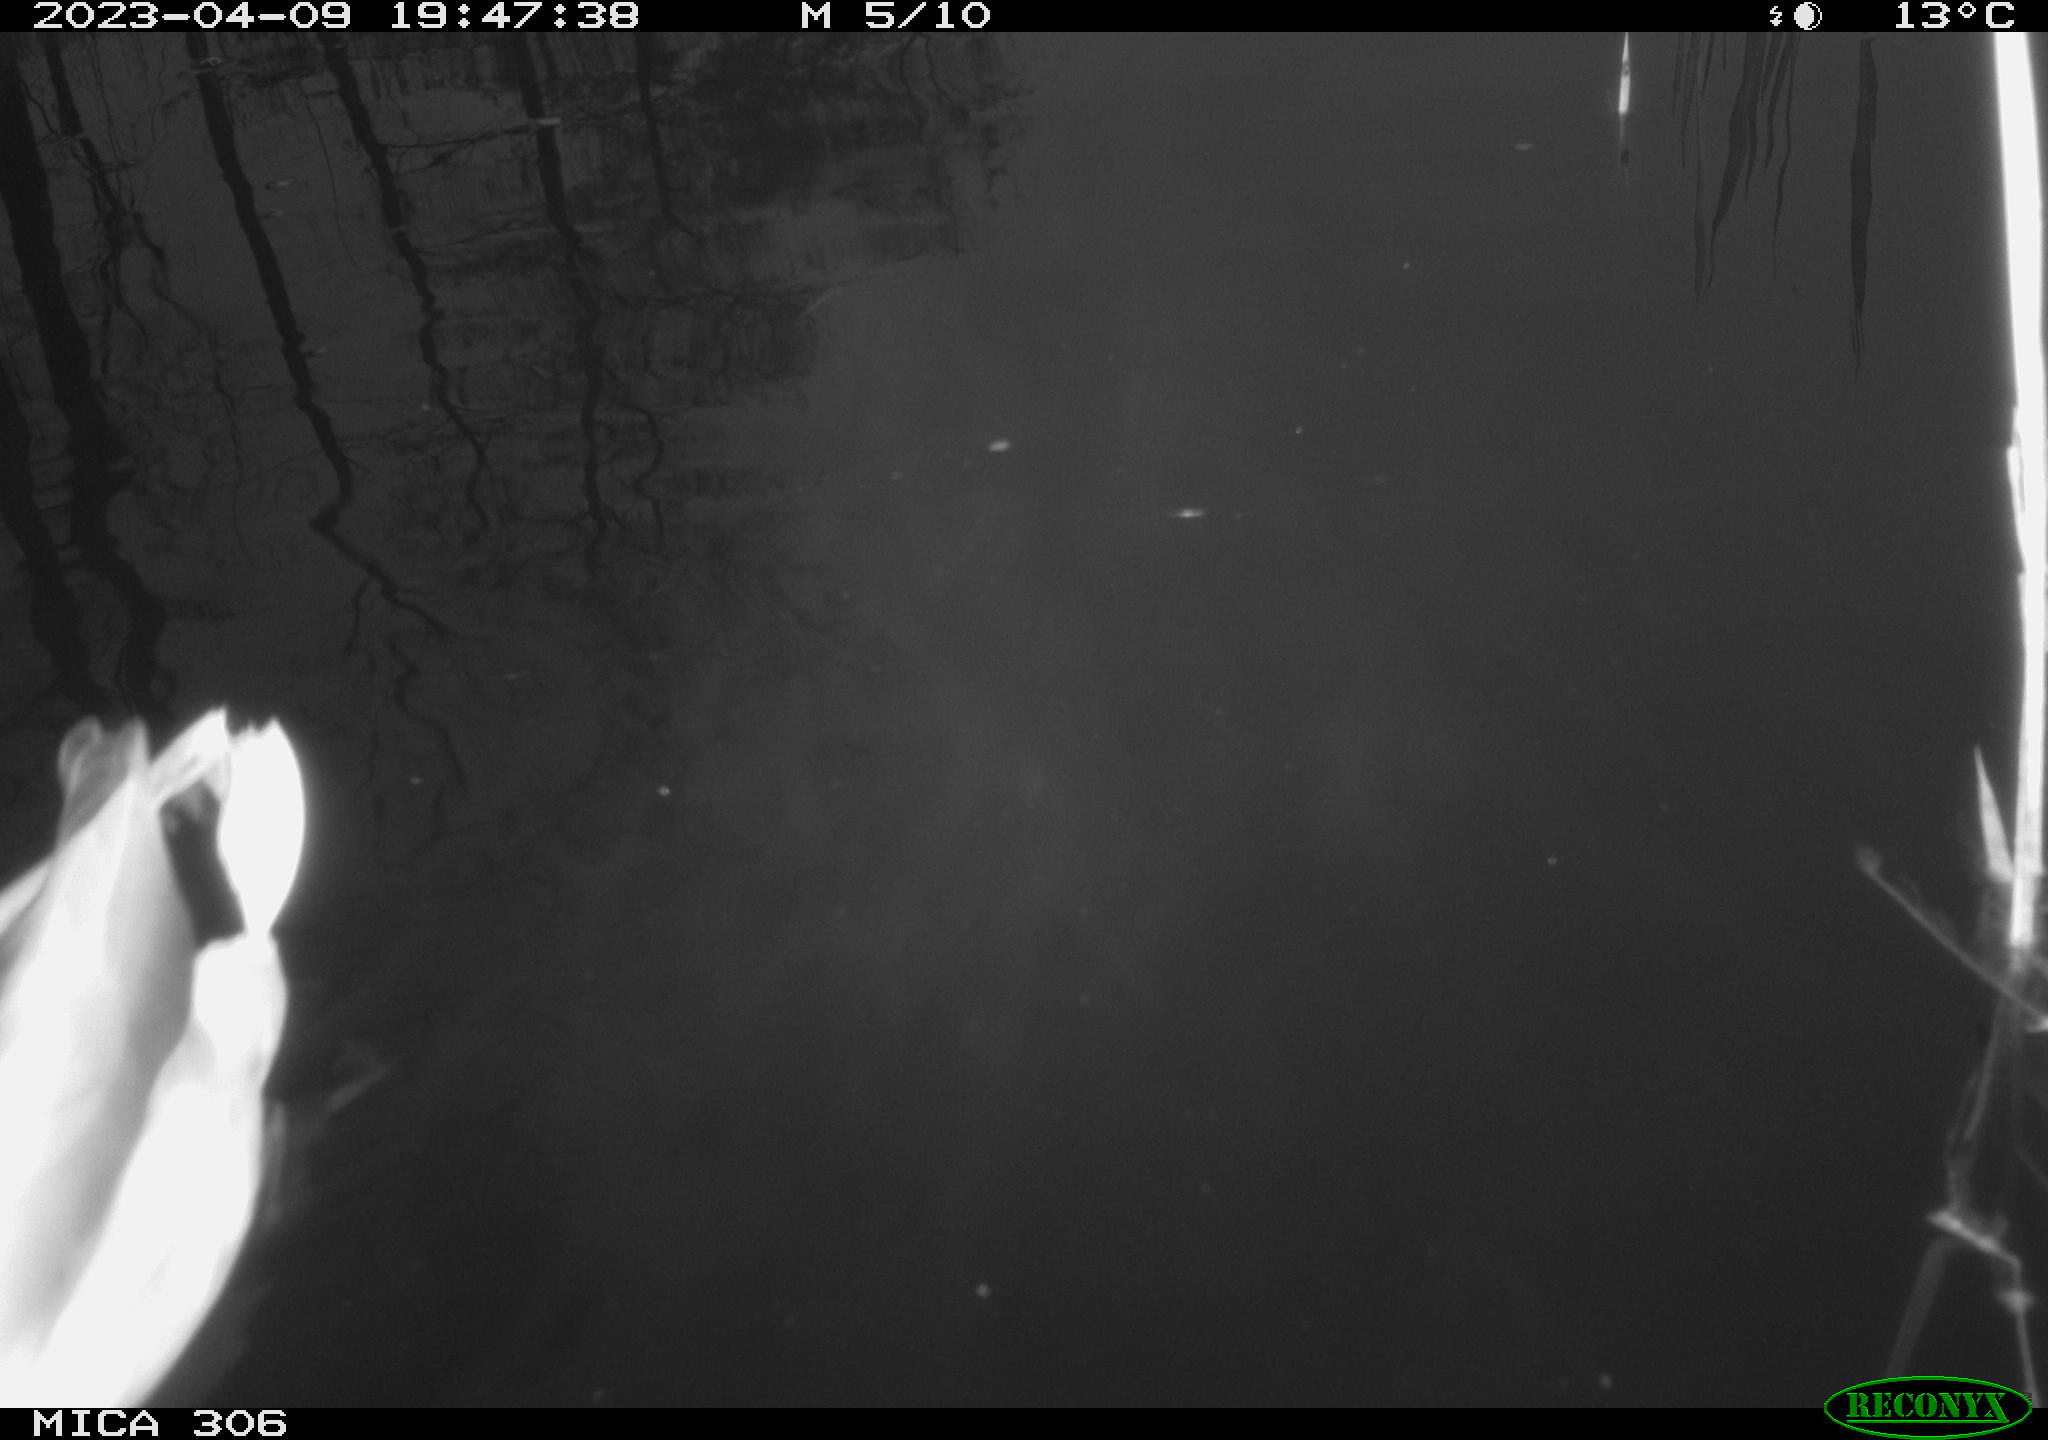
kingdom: Animalia
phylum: Chordata
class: Aves
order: Anseriformes
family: Anatidae
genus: Anas
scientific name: Anas
